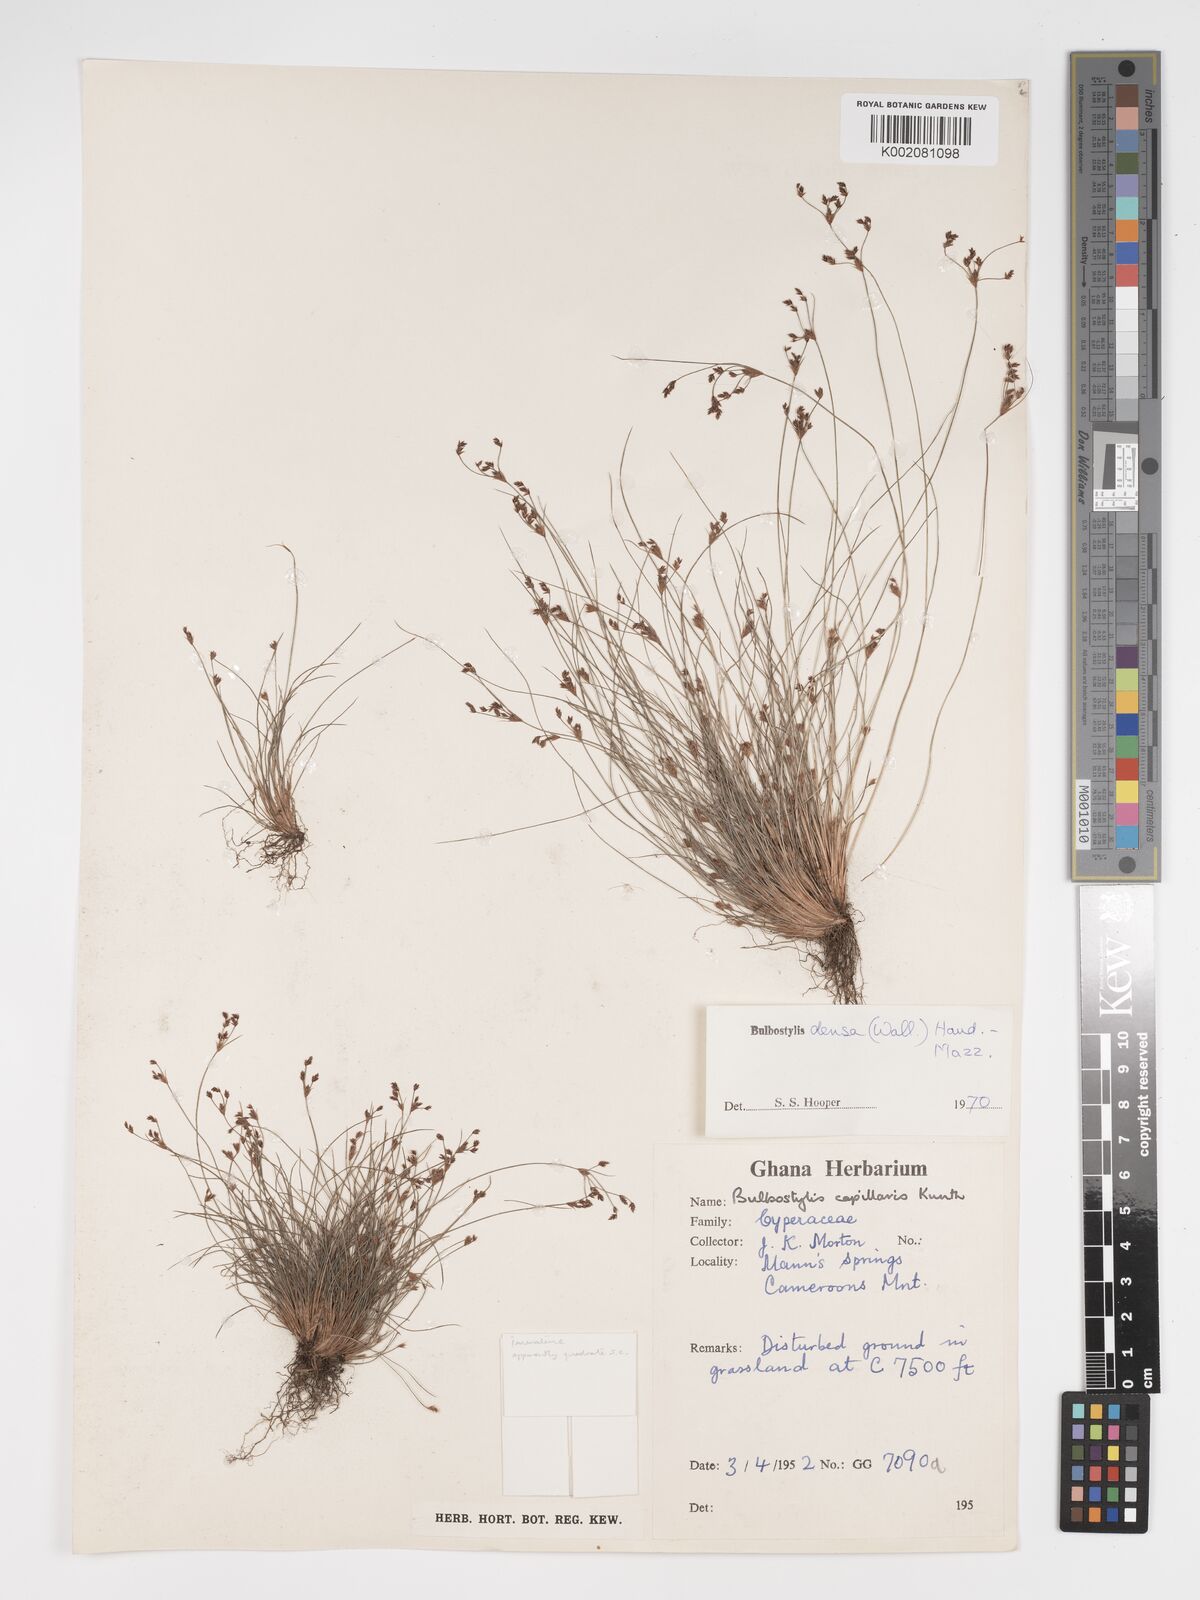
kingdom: Plantae
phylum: Tracheophyta
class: Liliopsida
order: Poales
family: Cyperaceae
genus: Bulbostylis
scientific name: Bulbostylis densa
